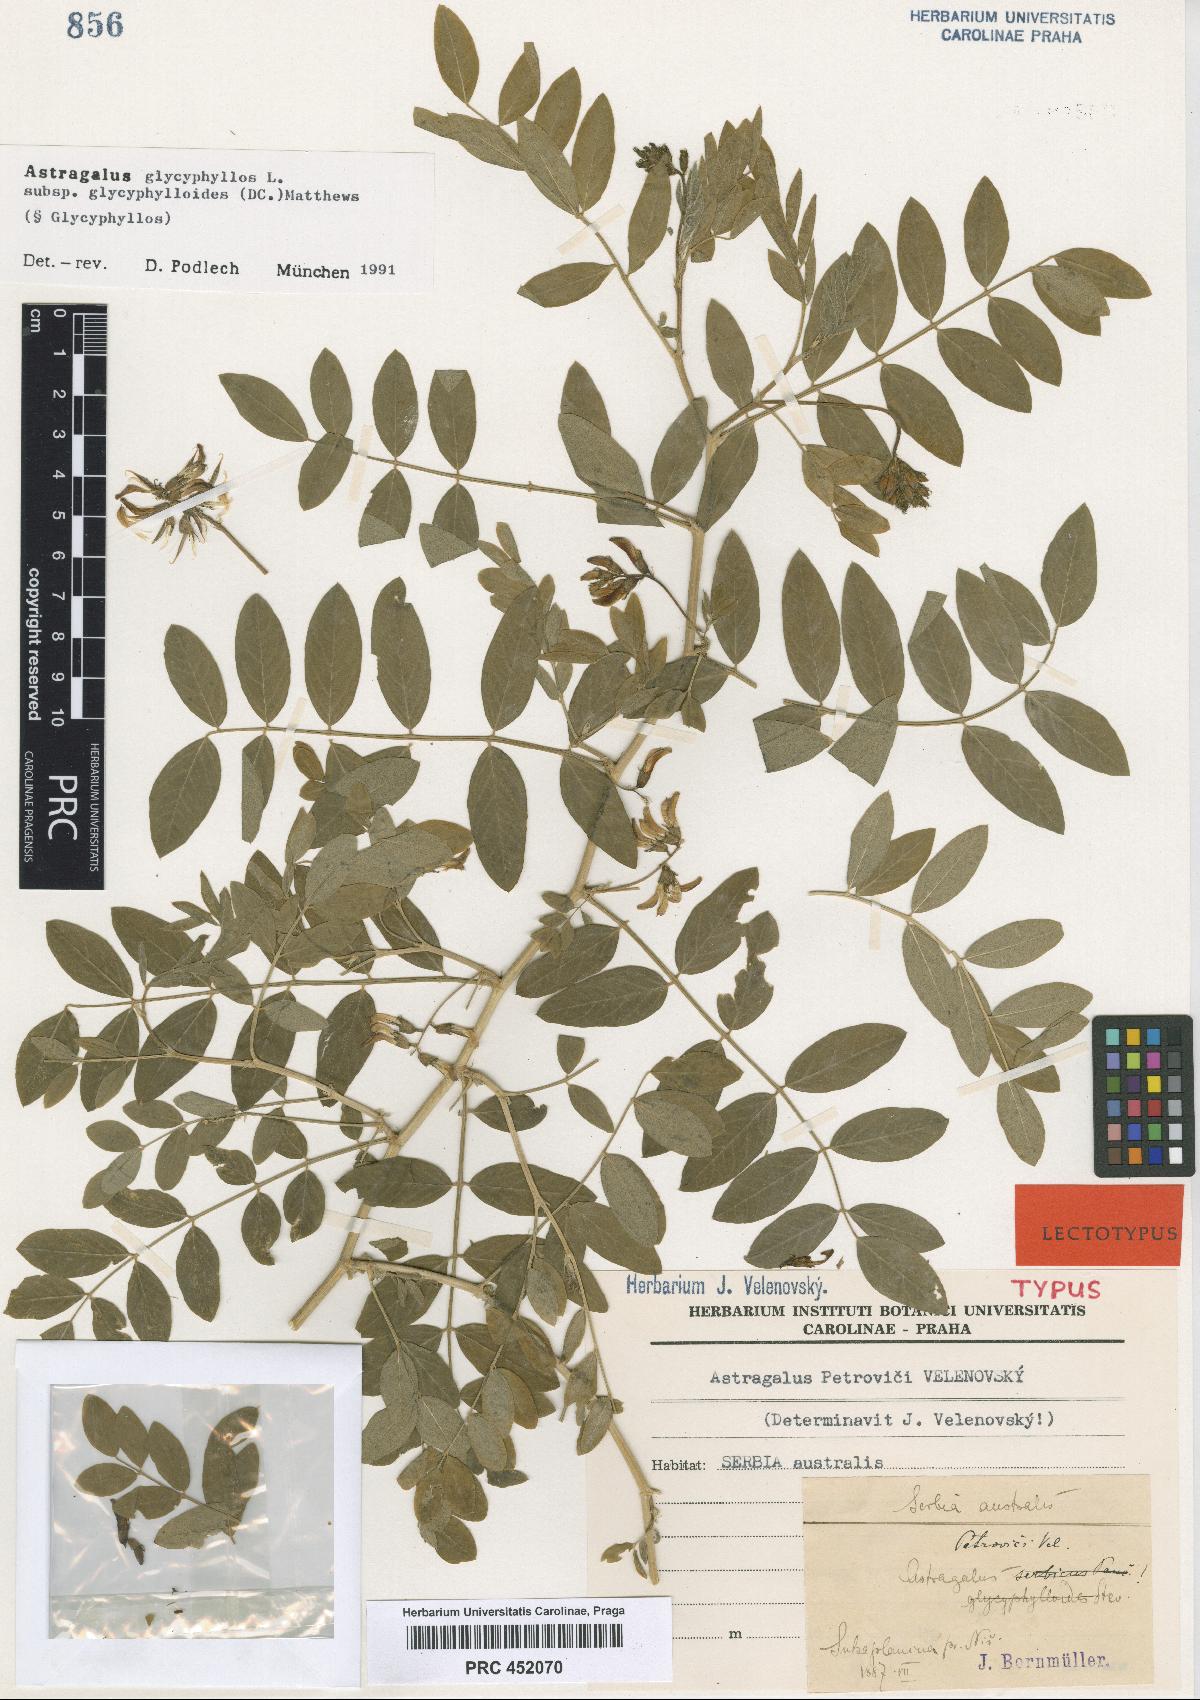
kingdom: Plantae
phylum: Tracheophyta
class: Magnoliopsida
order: Fabales
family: Fabaceae
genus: Astragalus
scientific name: Astragalus glycyphylloides
